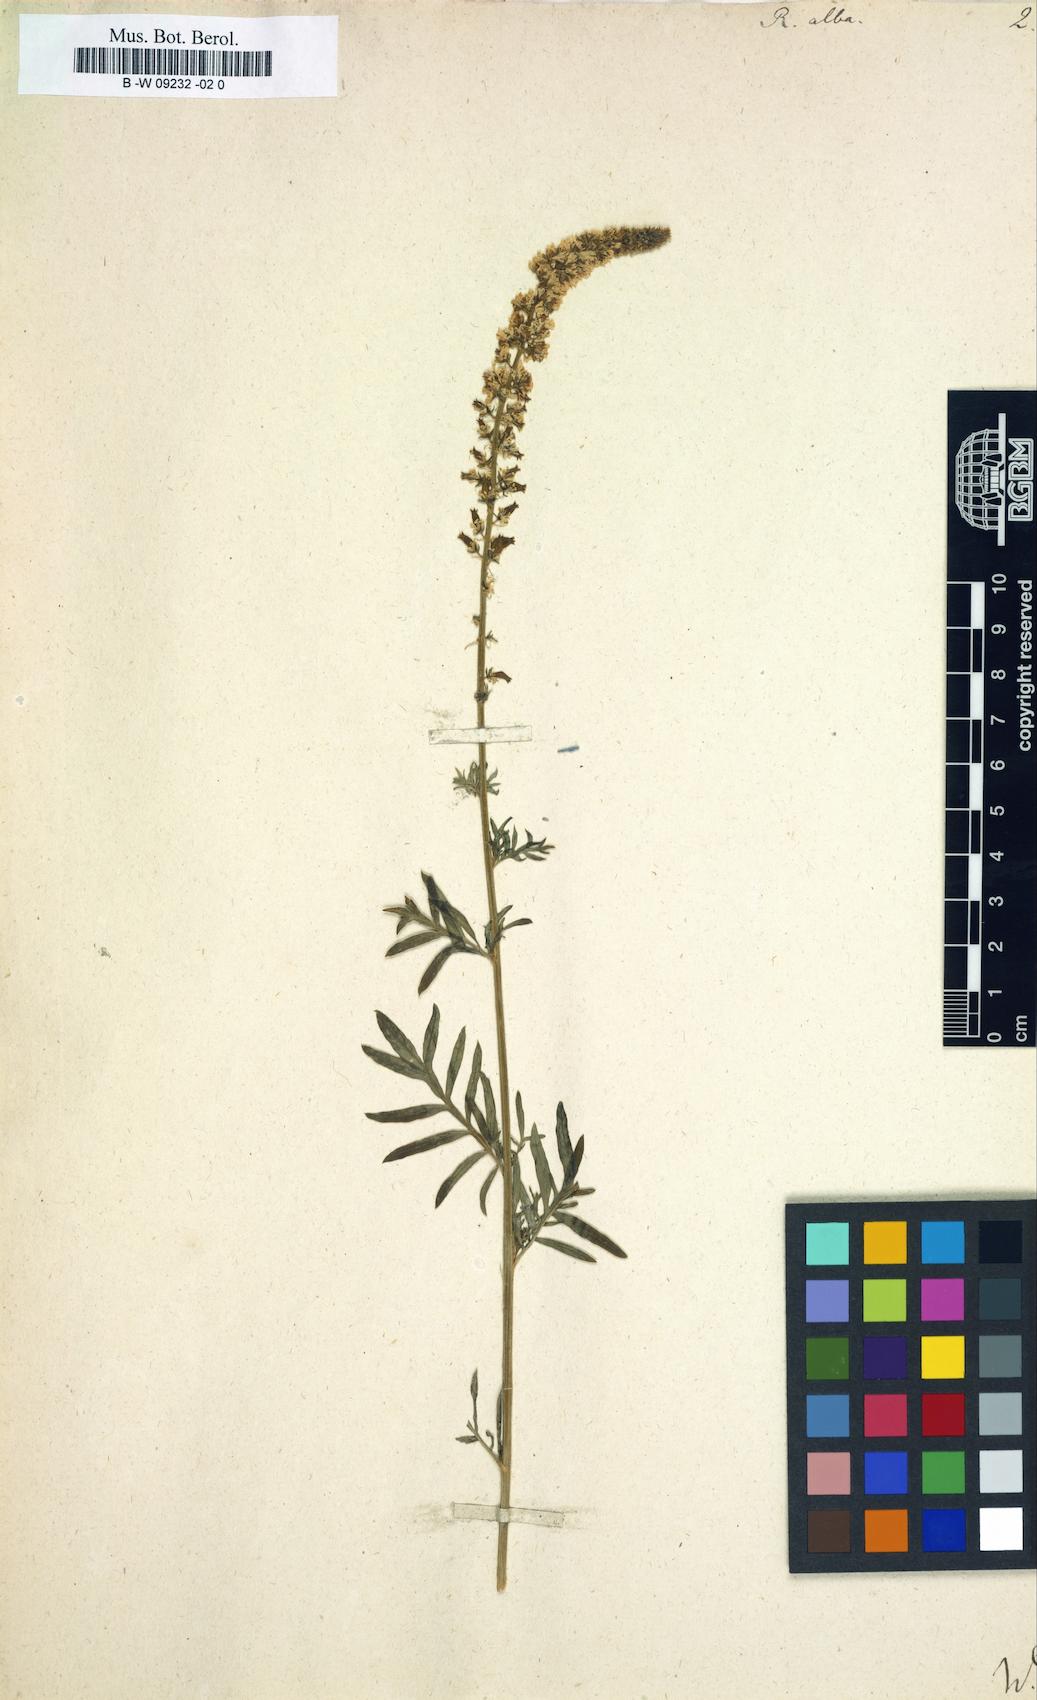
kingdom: Plantae
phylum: Tracheophyta
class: Magnoliopsida
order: Brassicales
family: Resedaceae
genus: Reseda
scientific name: Reseda alba
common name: White mignonette
